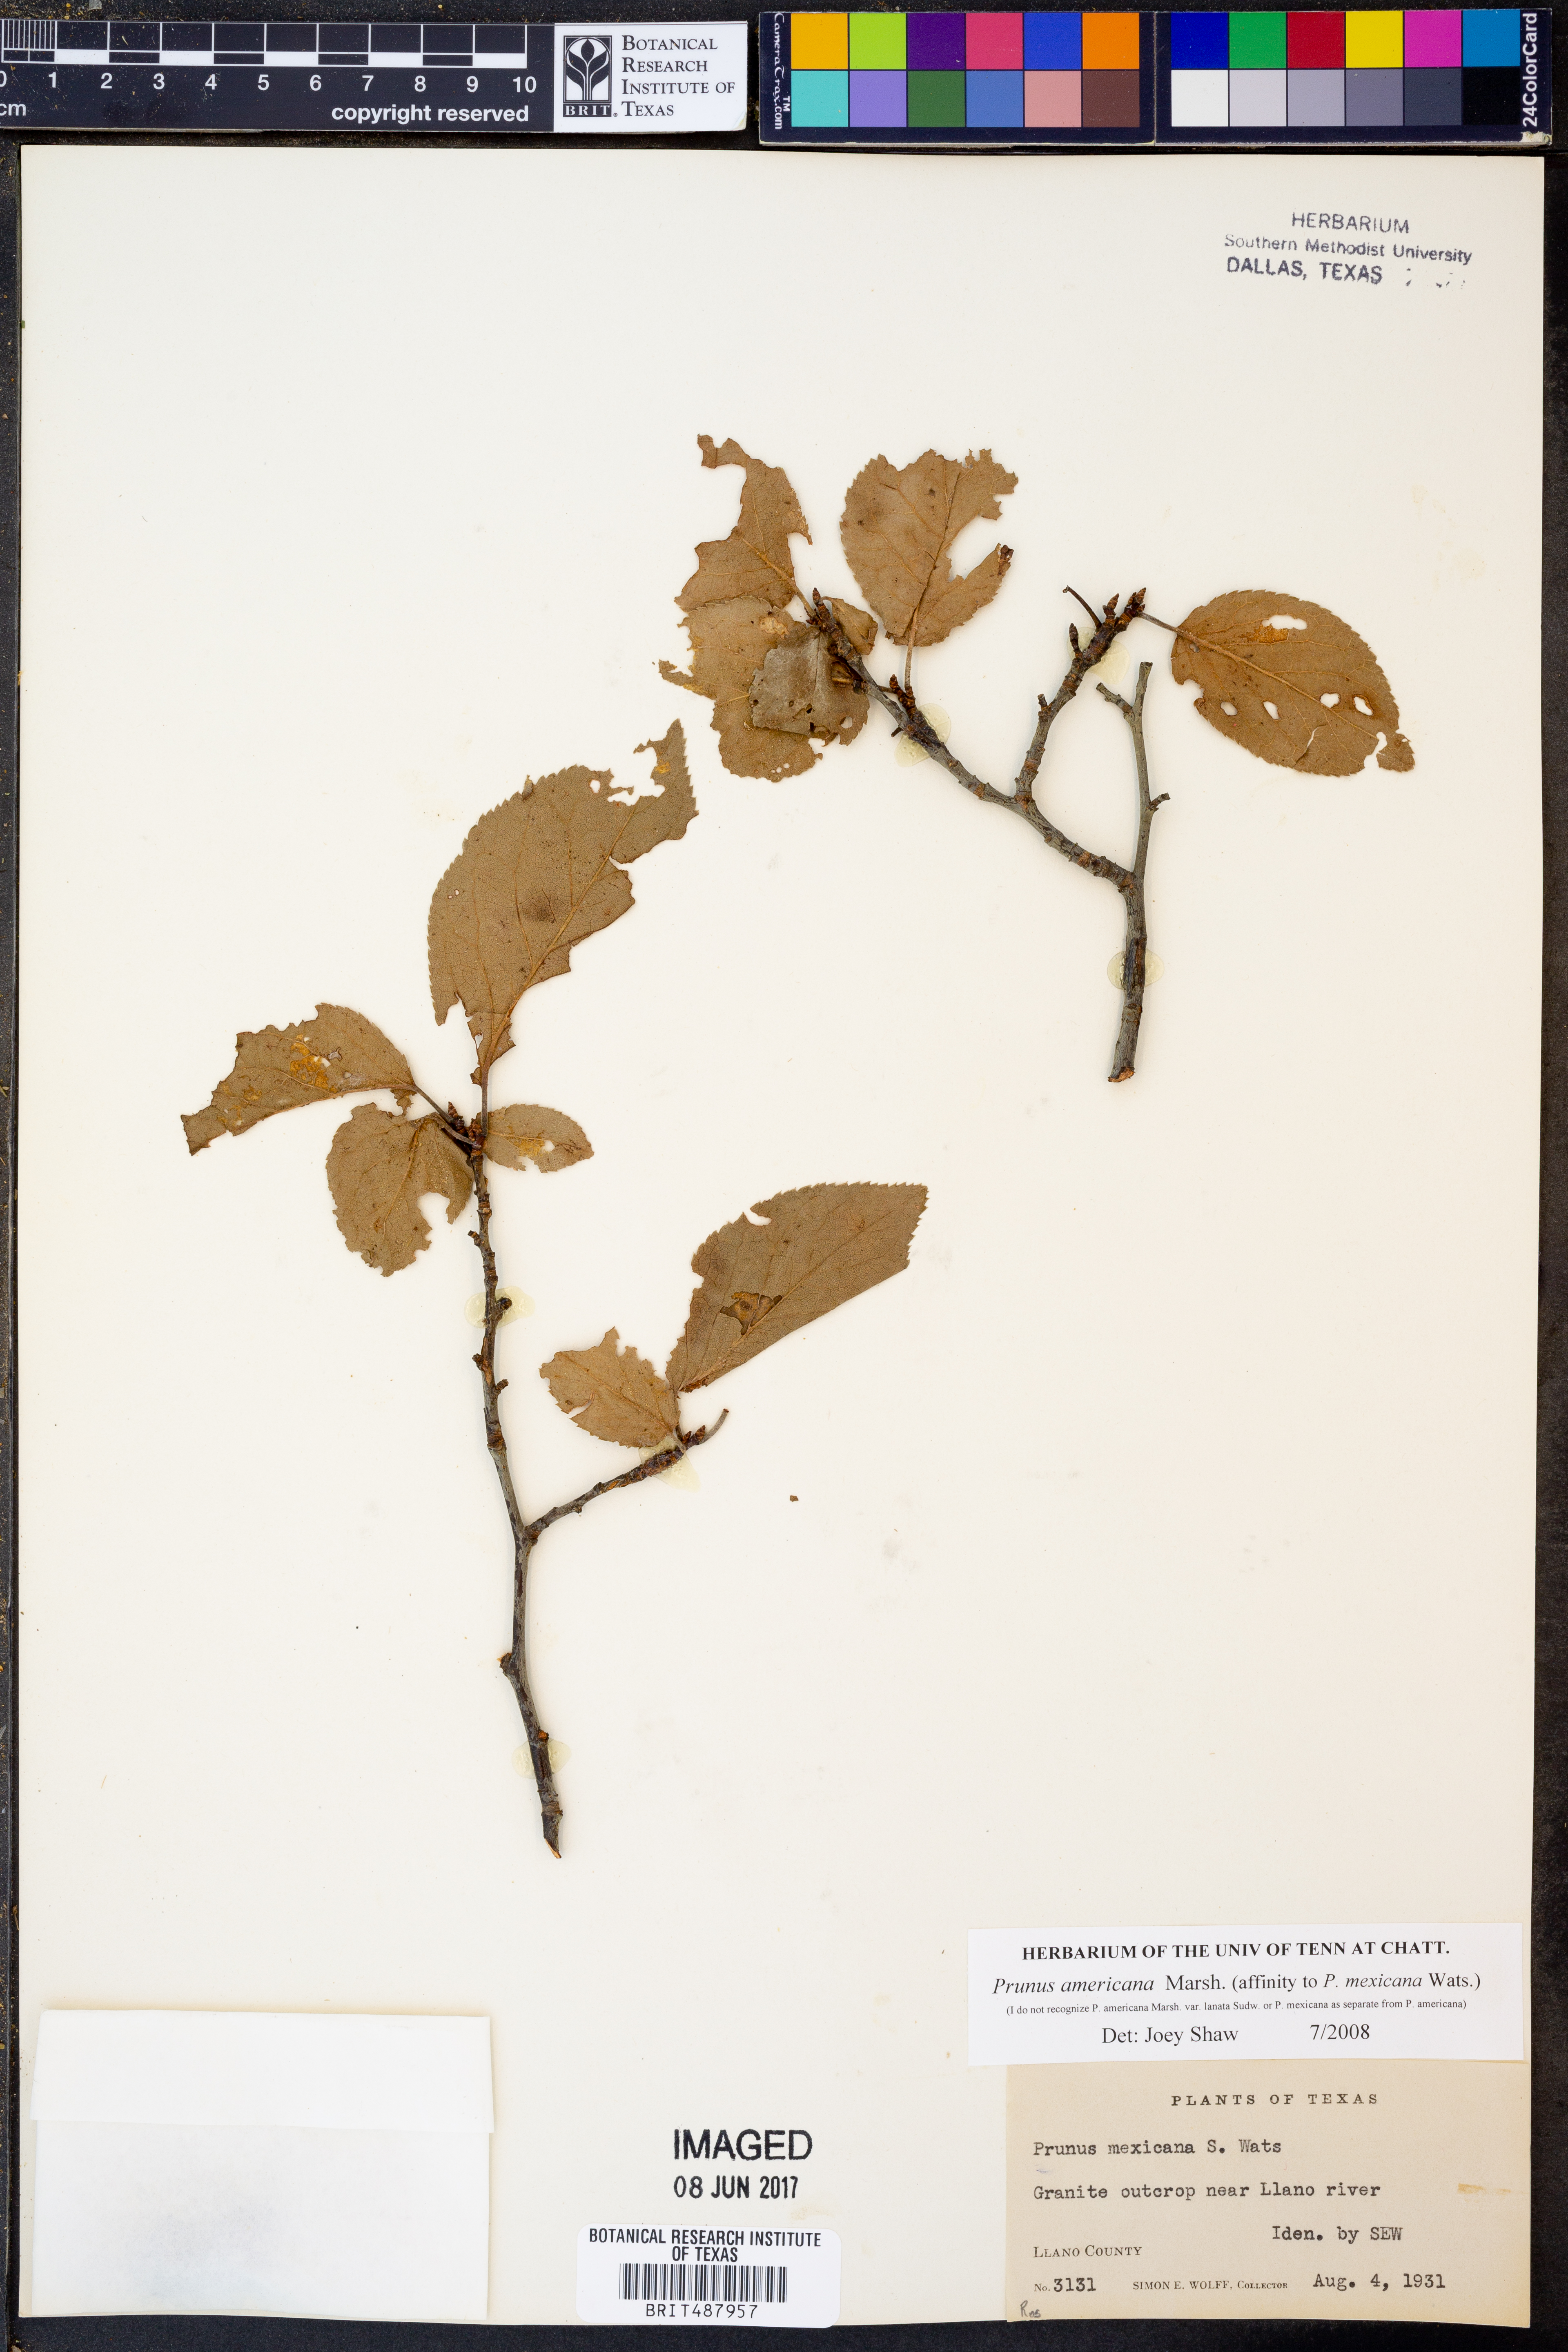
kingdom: Plantae
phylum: Tracheophyta
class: Magnoliopsida
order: Rosales
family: Rosaceae
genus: Prunus
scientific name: Prunus americana
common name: American plum
